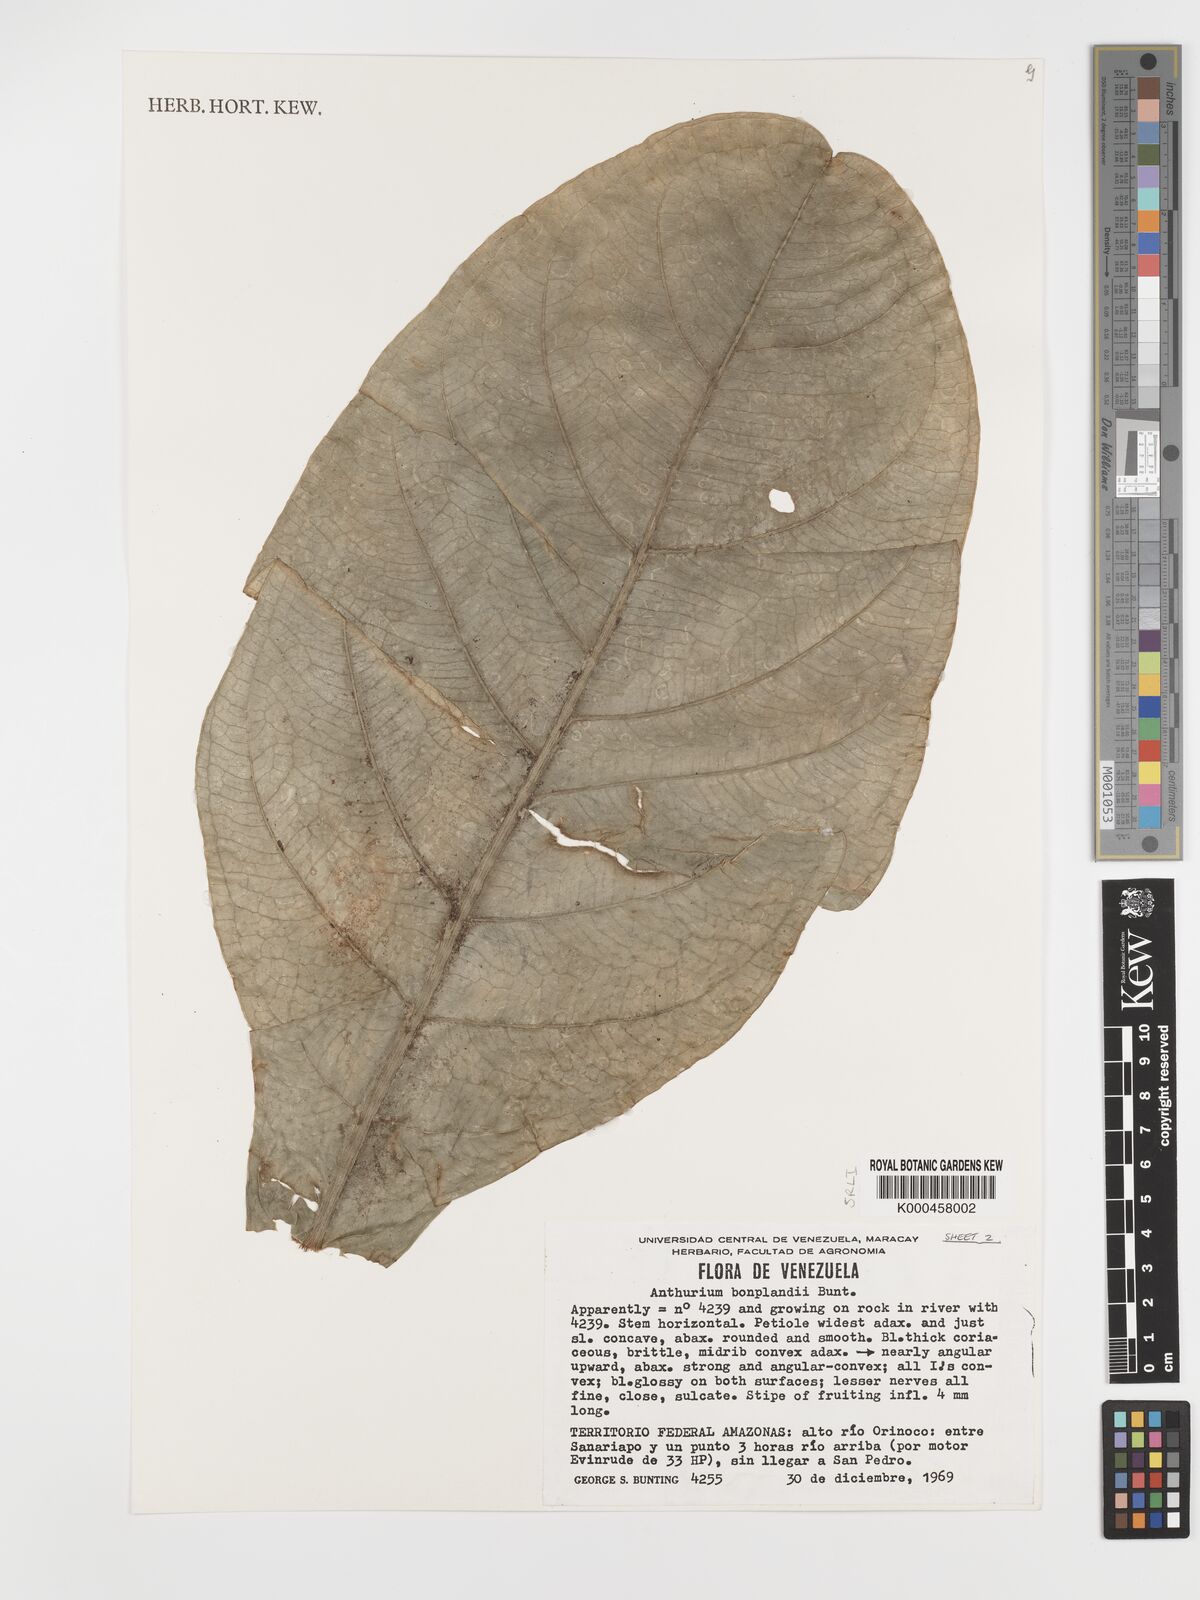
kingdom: Plantae
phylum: Tracheophyta
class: Liliopsida
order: Alismatales
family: Araceae
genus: Anthurium
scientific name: Anthurium bonplandii
